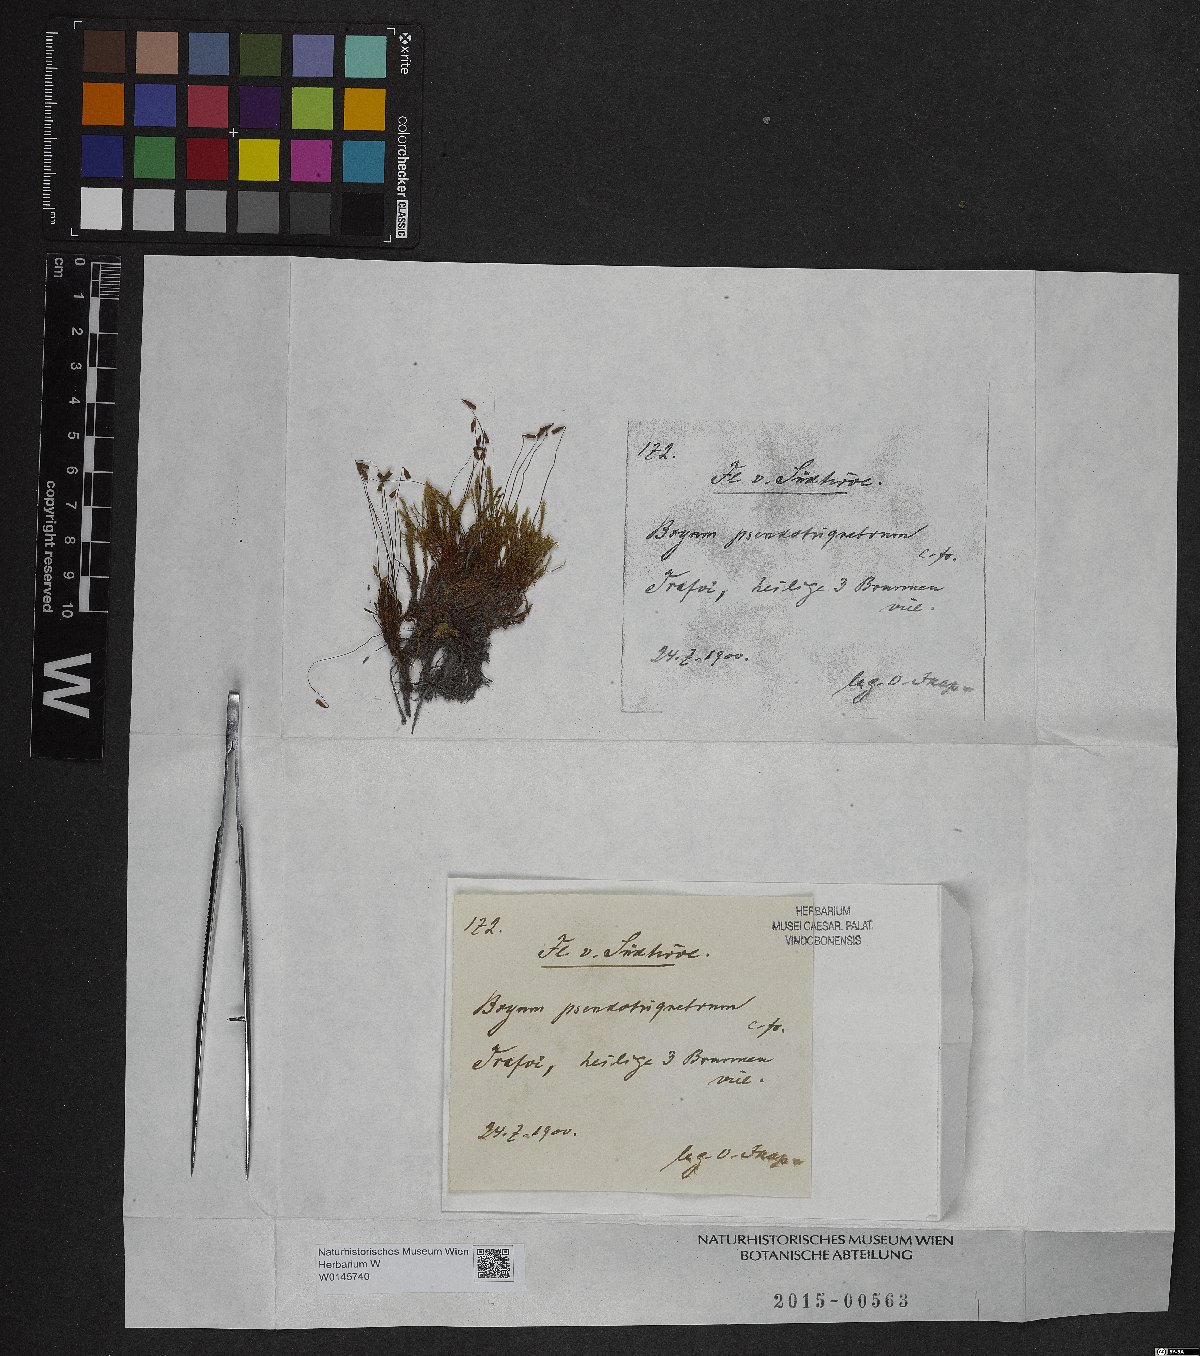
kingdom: Plantae
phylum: Bryophyta
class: Bryopsida
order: Bryales
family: Bryaceae
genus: Ptychostomum
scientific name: Ptychostomum pseudotriquetrum
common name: Long-leaved thread moss
